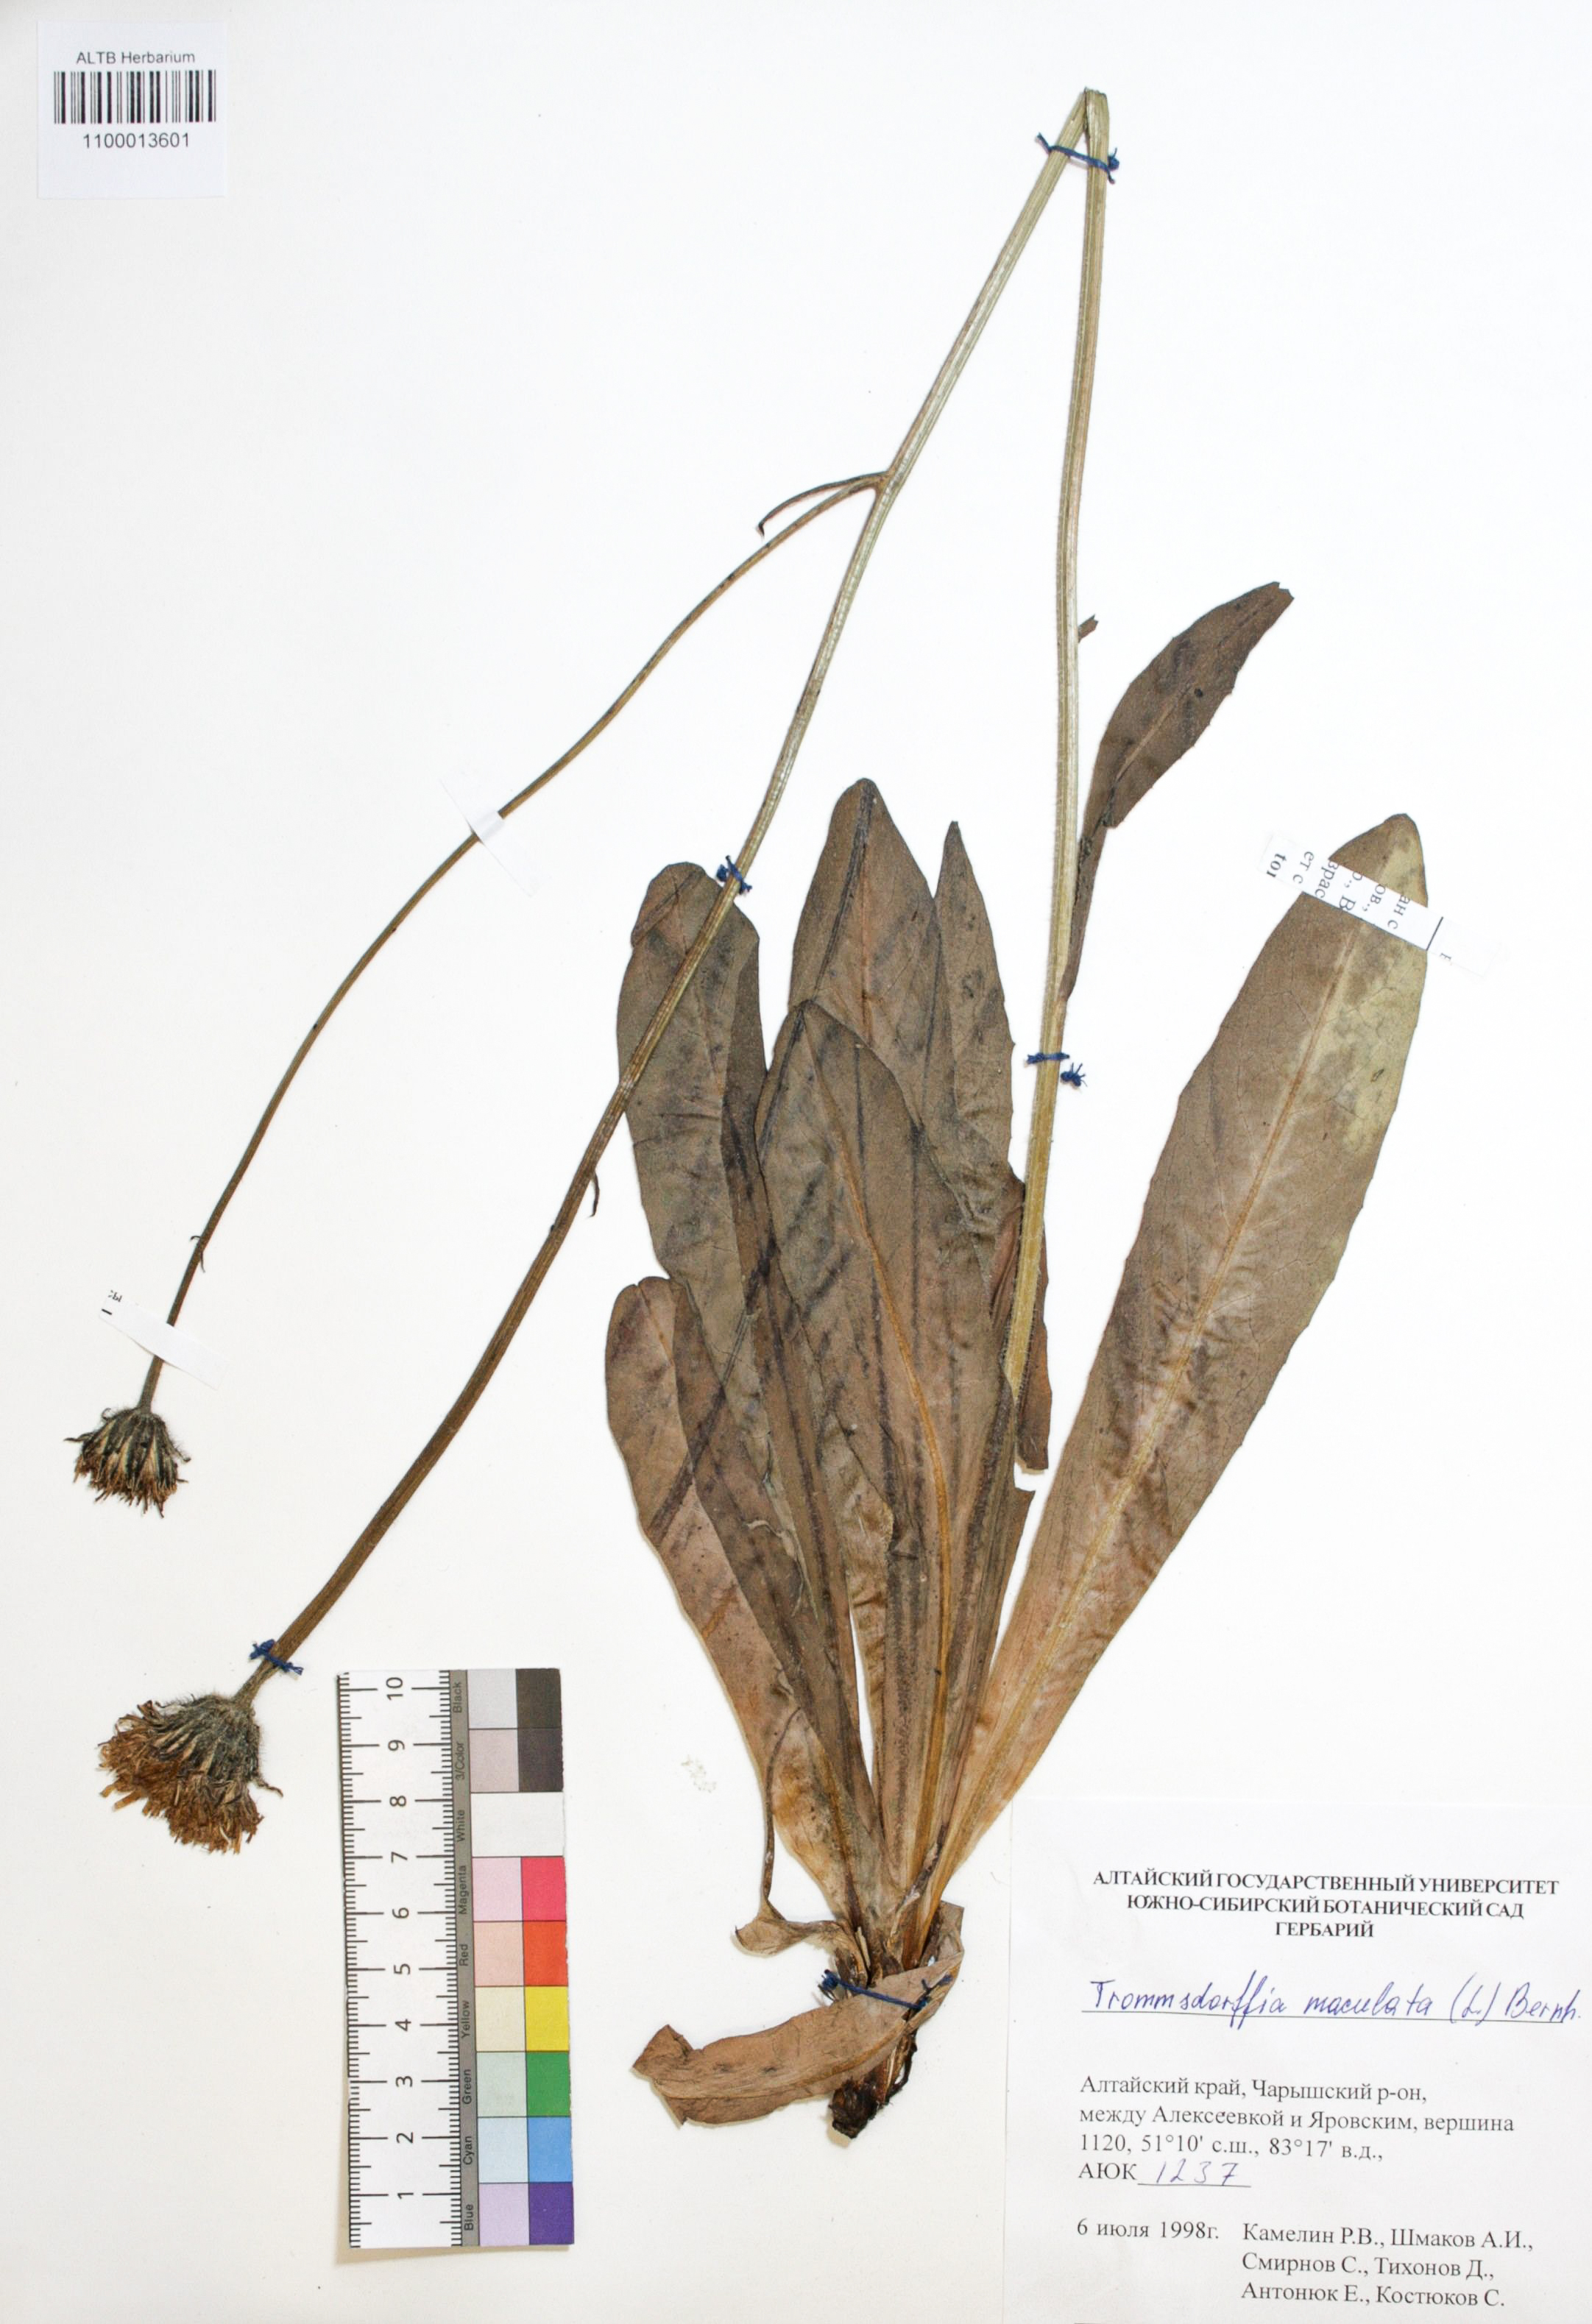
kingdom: Plantae
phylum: Tracheophyta
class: Magnoliopsida
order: Asterales
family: Asteraceae
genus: Trommsdorffia
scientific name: Trommsdorffia maculata
